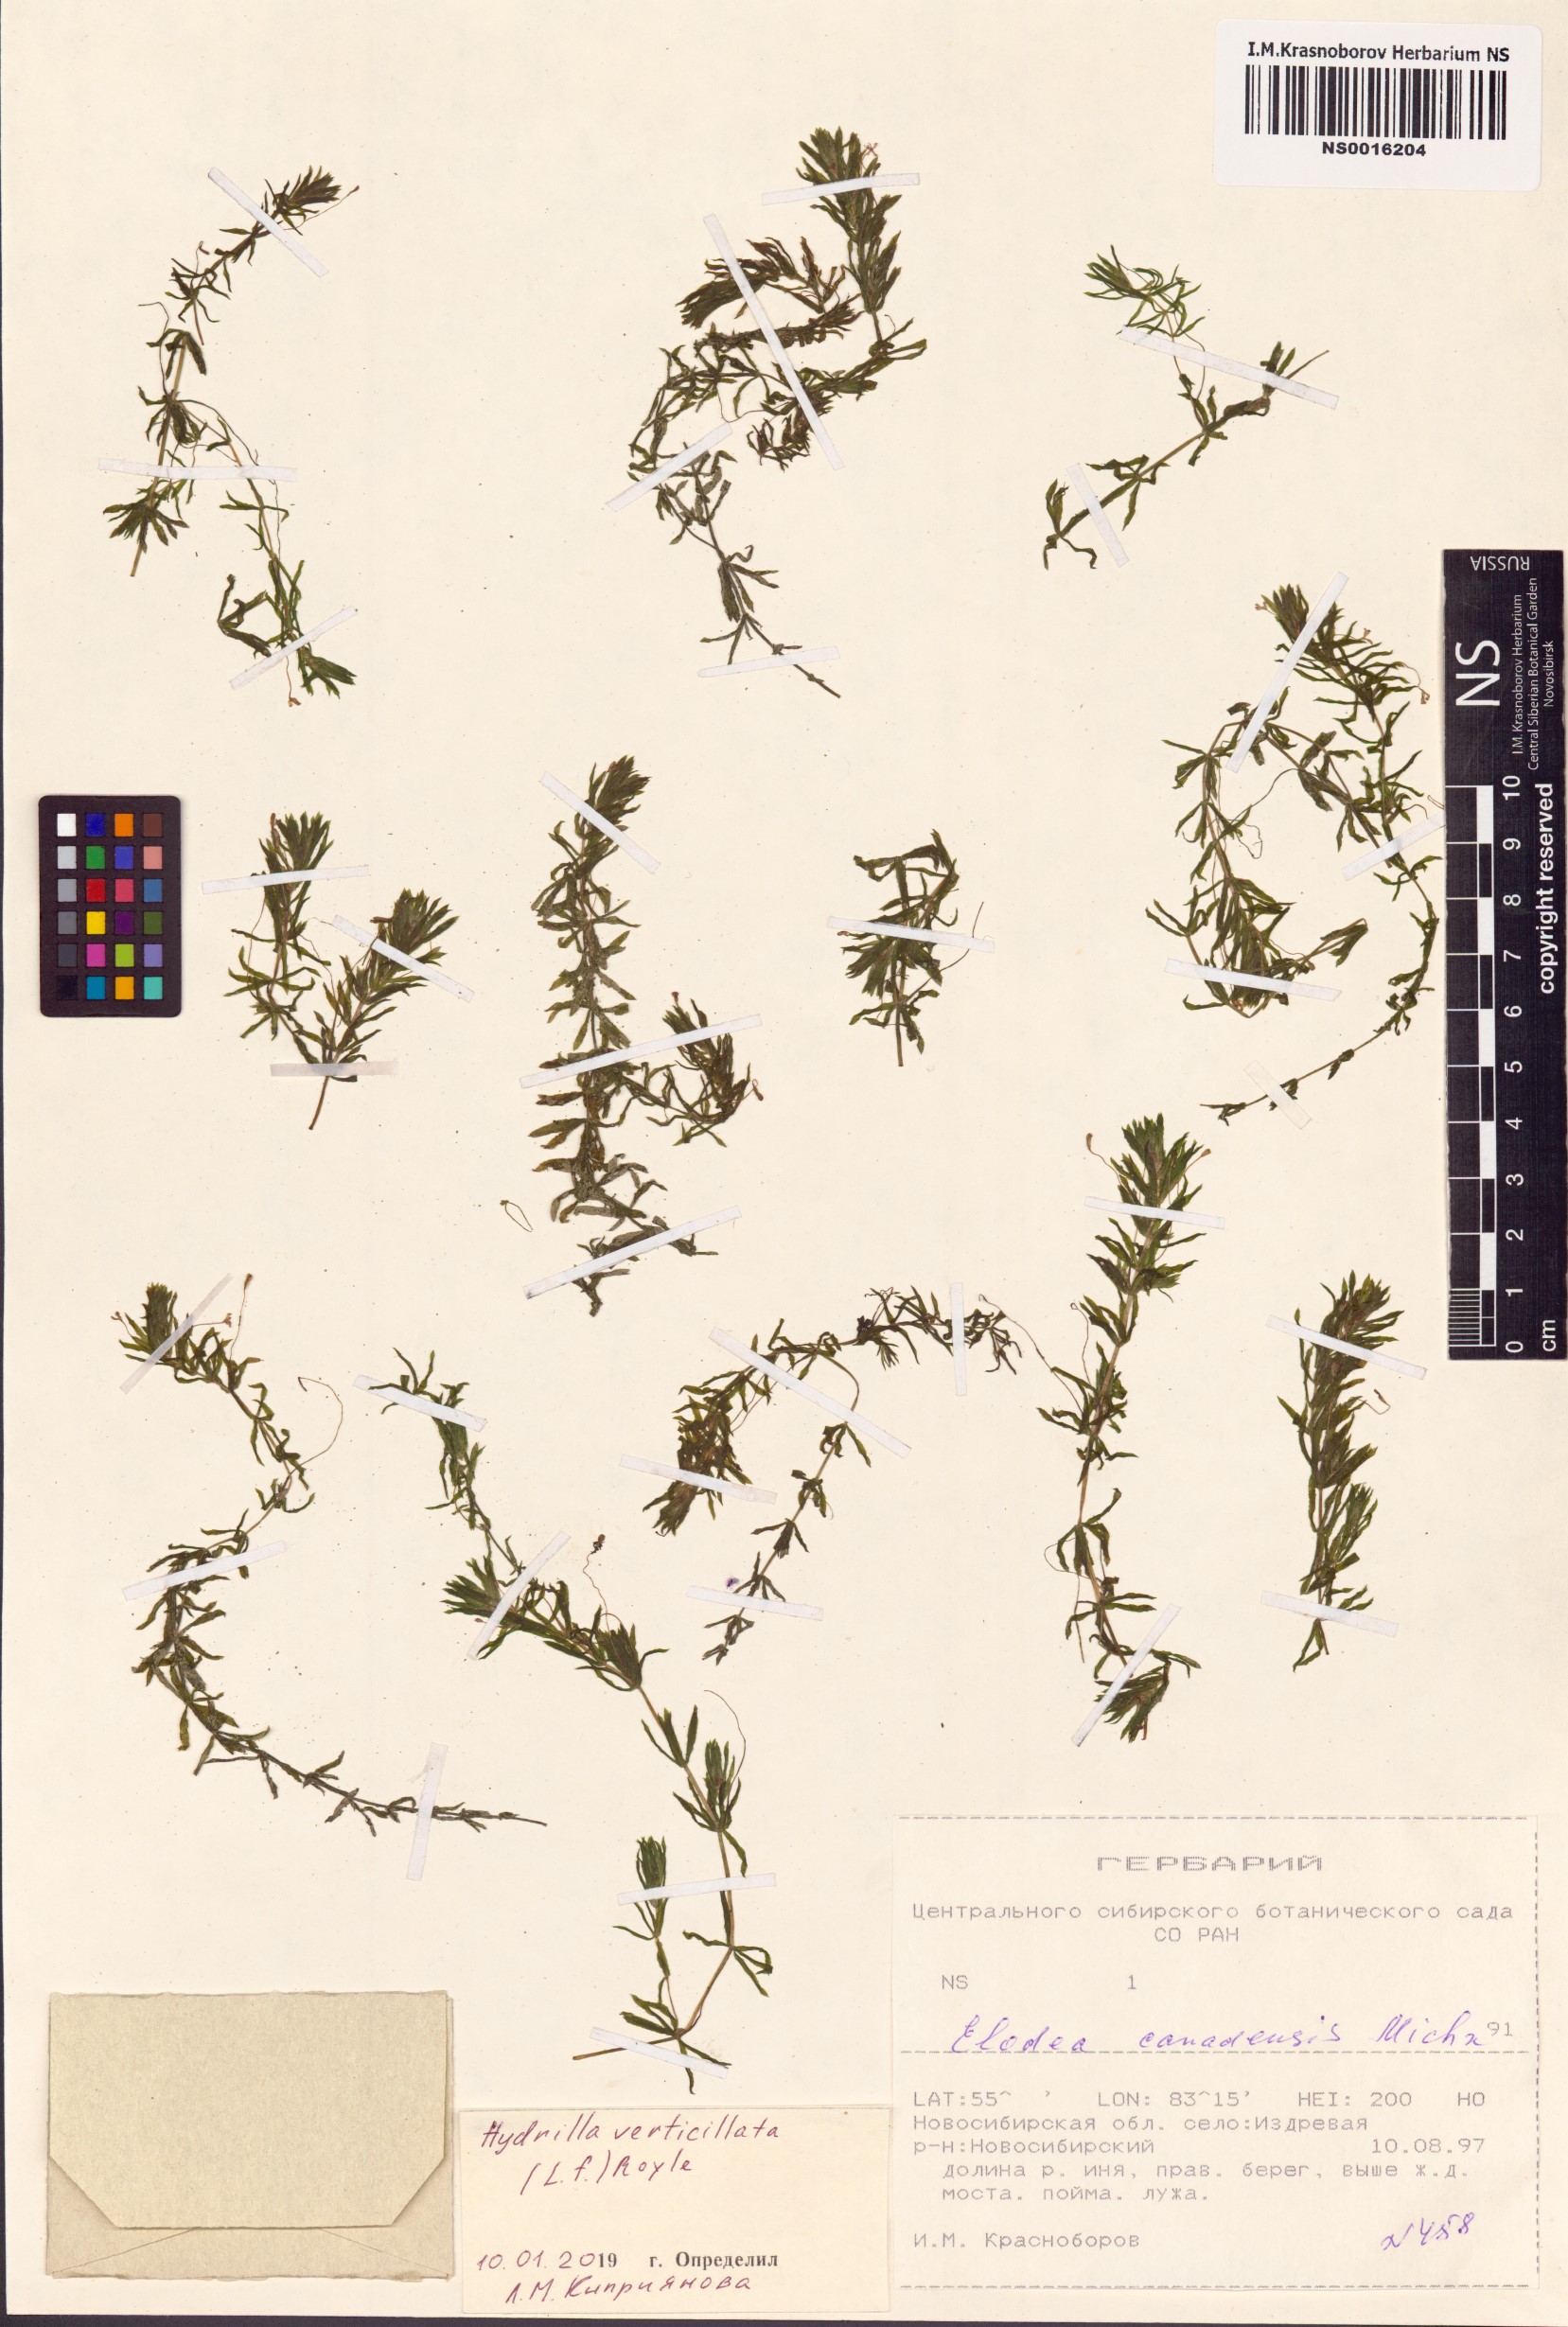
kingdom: Plantae
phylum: Tracheophyta
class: Liliopsida
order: Alismatales
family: Hydrocharitaceae
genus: Hydrilla
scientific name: Hydrilla verticillata
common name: Florida-elodea
